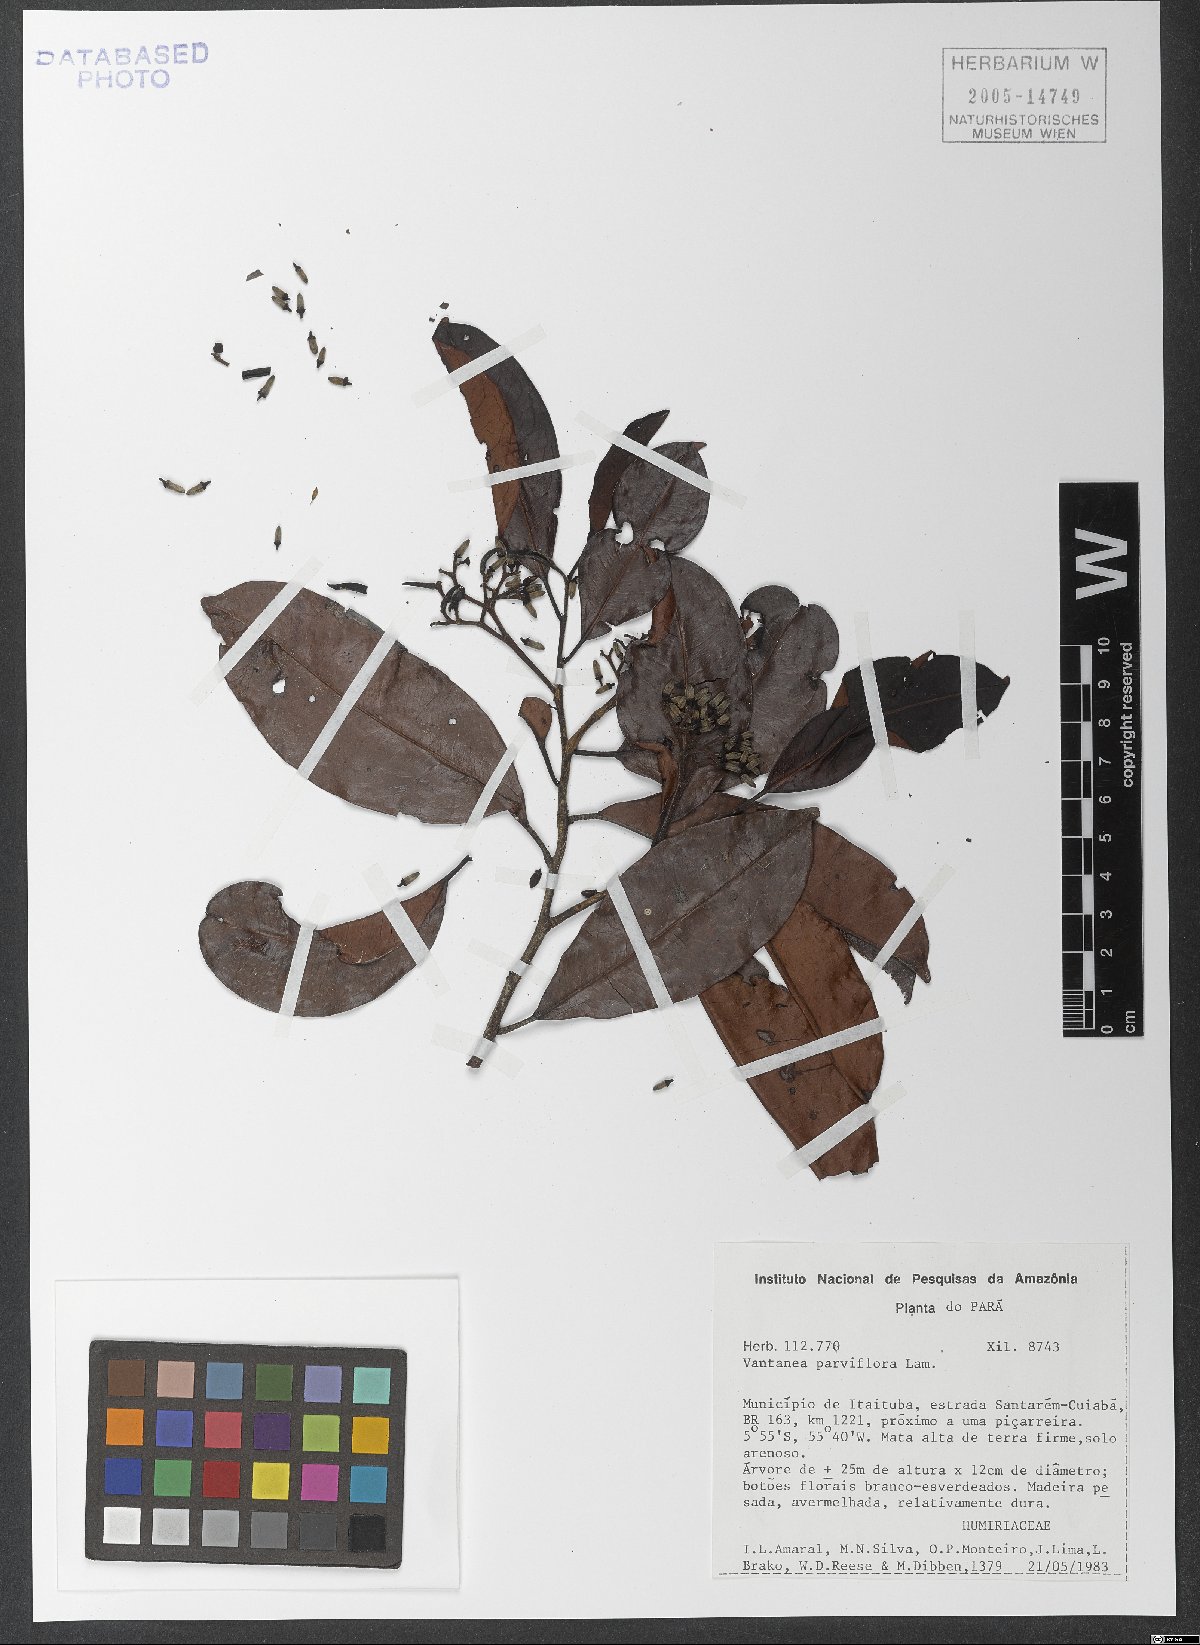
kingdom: Plantae
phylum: Tracheophyta
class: Magnoliopsida
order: Malpighiales
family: Humiriaceae
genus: Vantanea
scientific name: Vantanea parviflora
